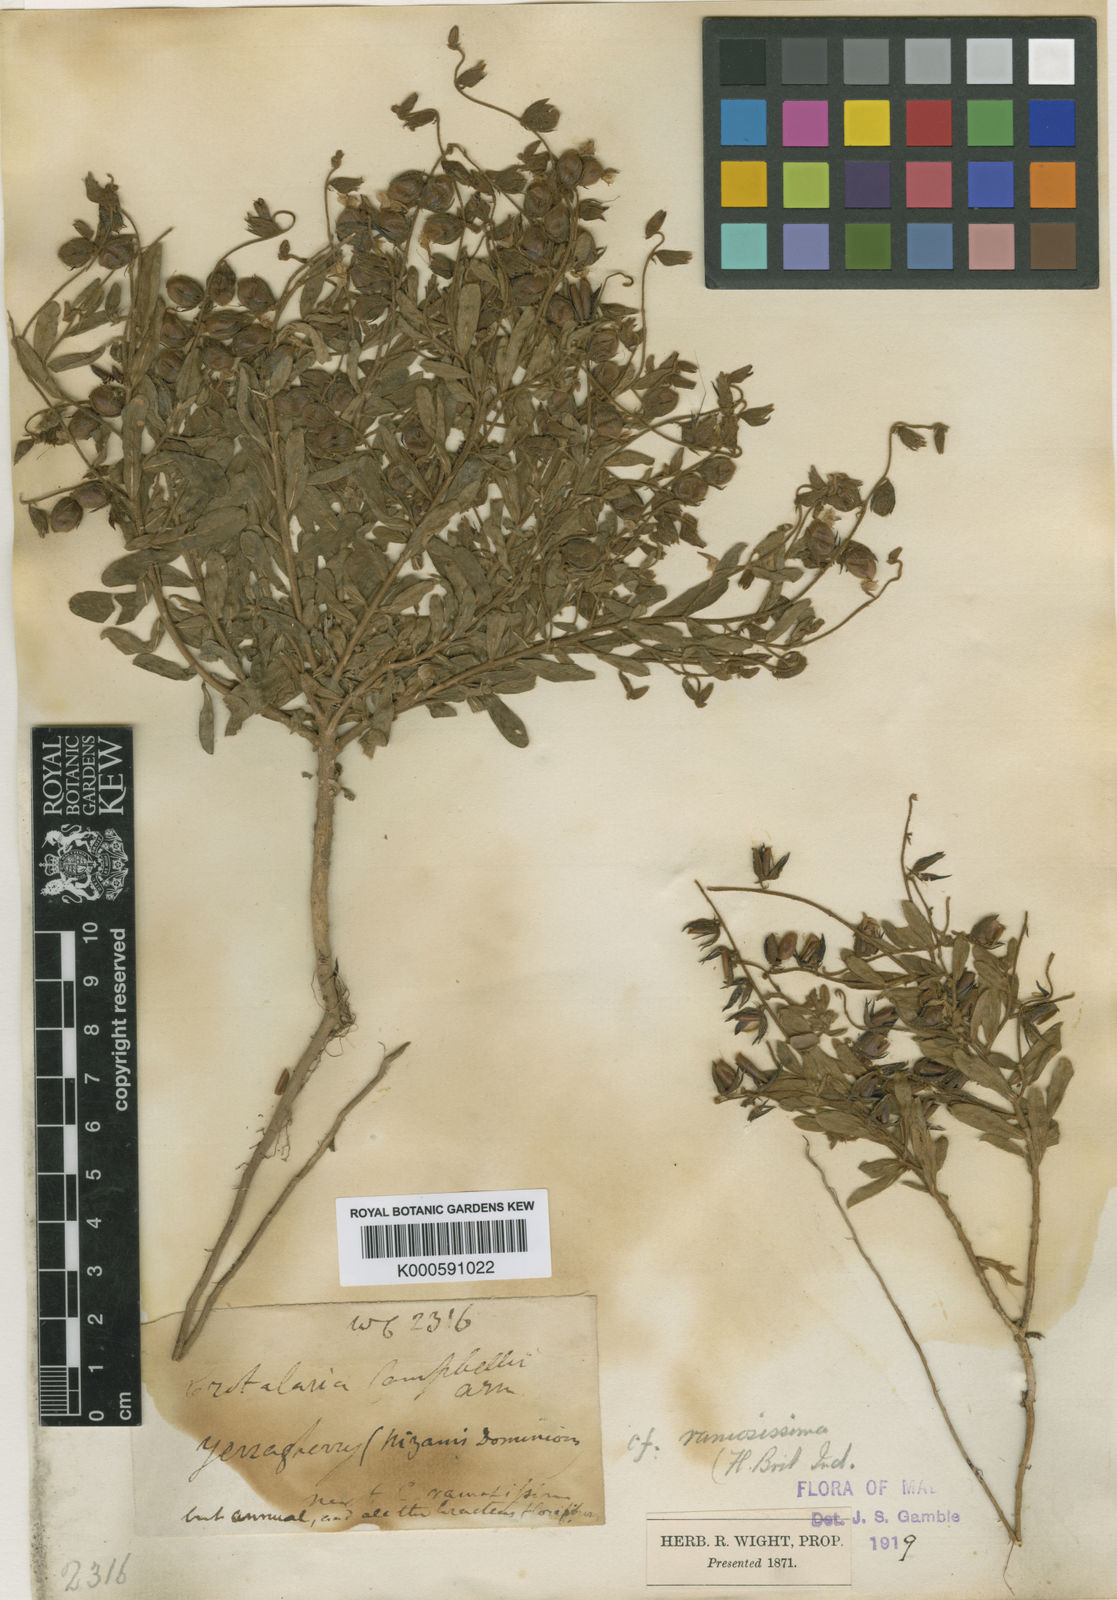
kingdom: Plantae
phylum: Tracheophyta
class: Magnoliopsida
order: Fabales
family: Fabaceae
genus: Crotalaria
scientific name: Crotalaria huillensis
